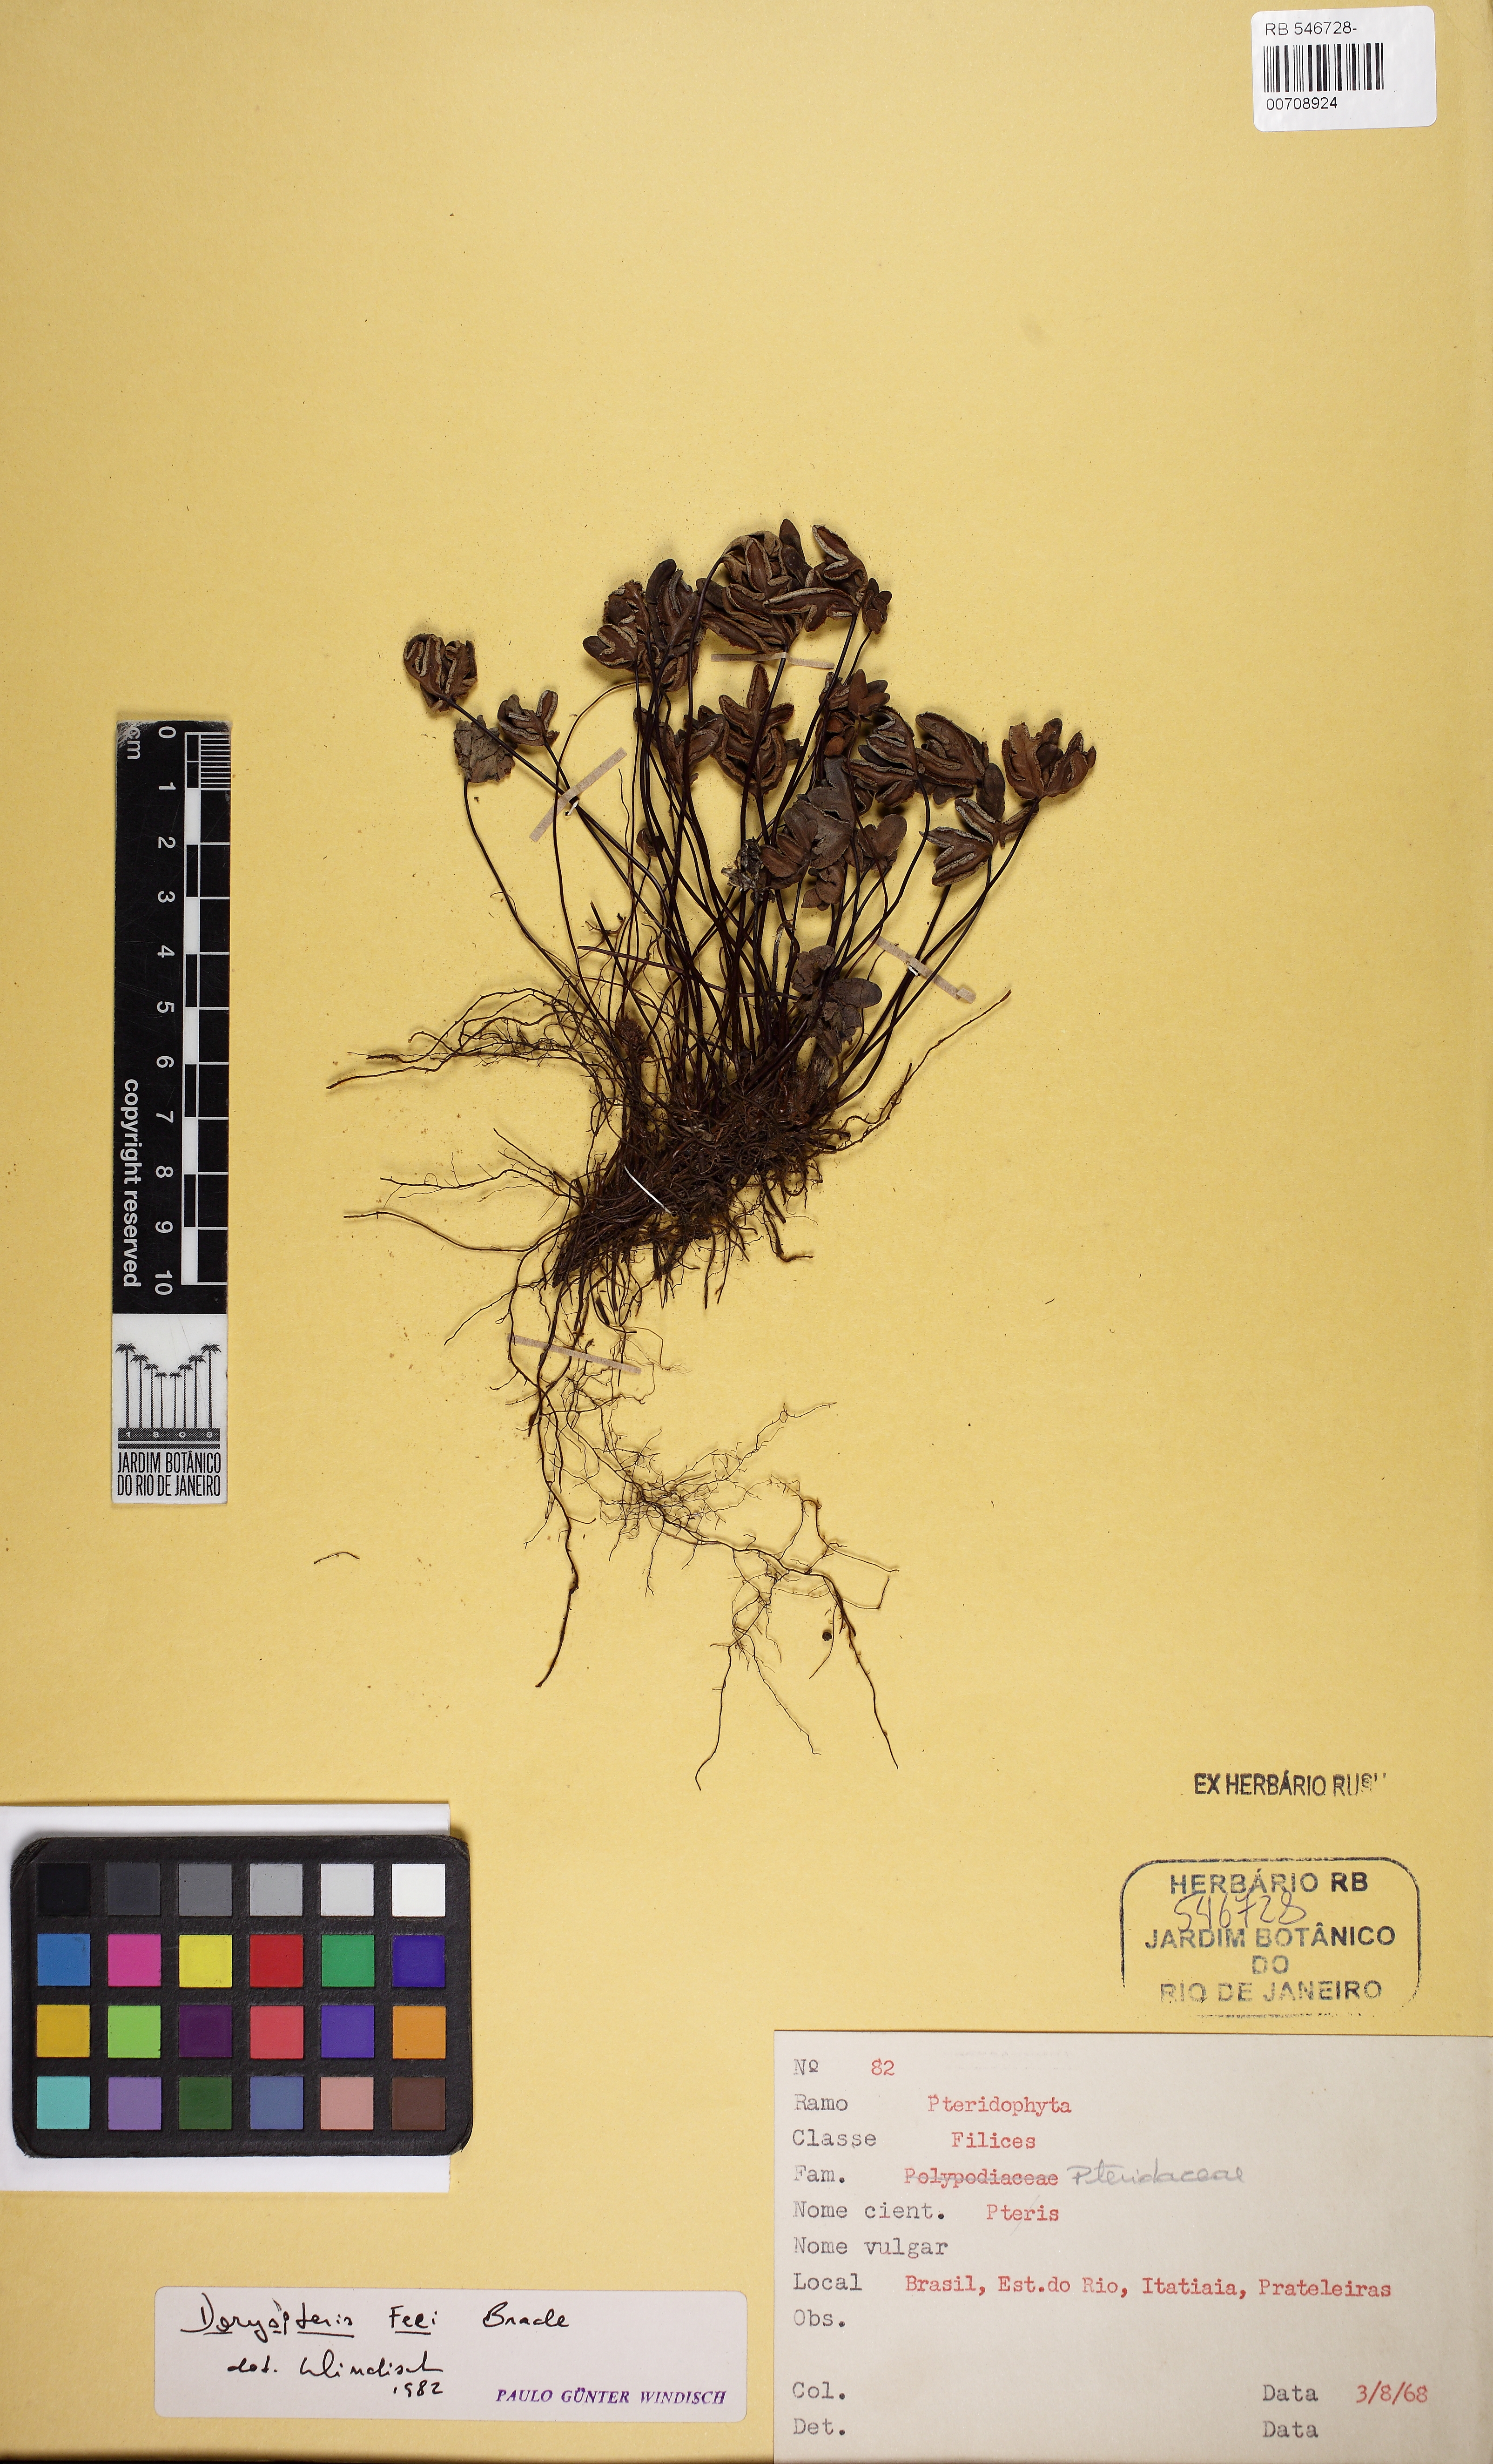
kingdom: Plantae
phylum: Tracheophyta
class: Polypodiopsida
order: Polypodiales
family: Pteridaceae
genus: Lytoneuron
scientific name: Lytoneuron feei
